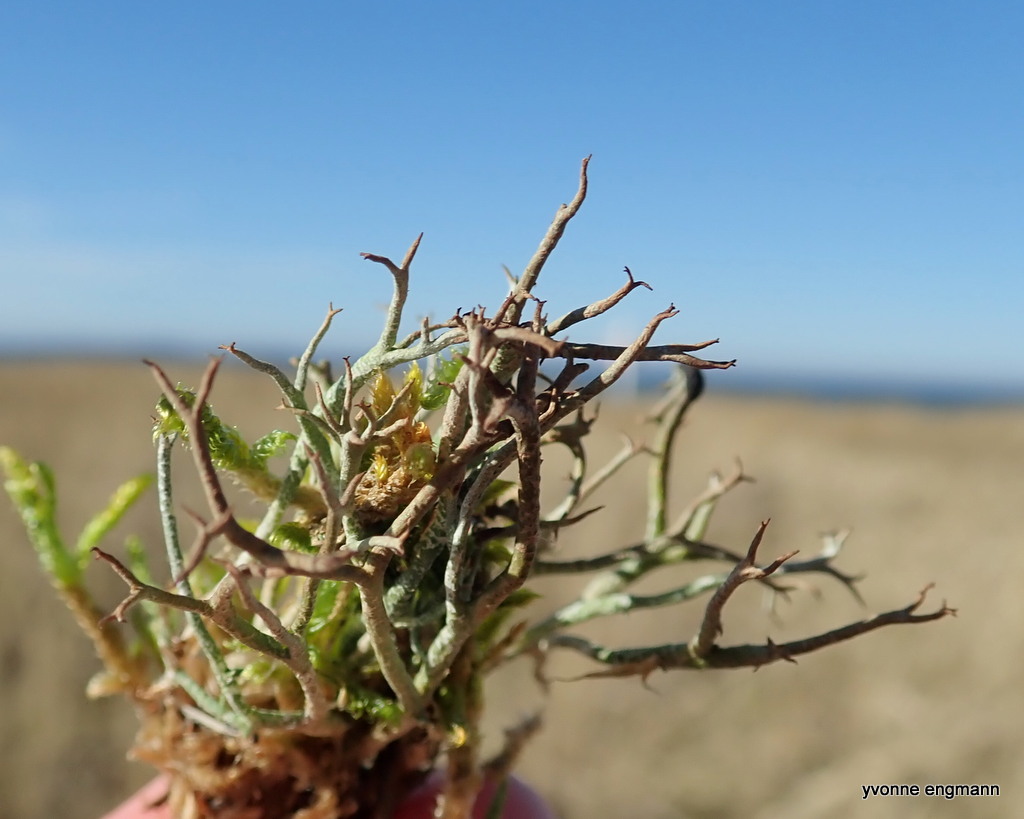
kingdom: Fungi
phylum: Ascomycota
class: Lecanoromycetes
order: Lecanorales
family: Cladoniaceae
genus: Cladonia
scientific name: Cladonia furcata
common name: kløftet bægerlav
